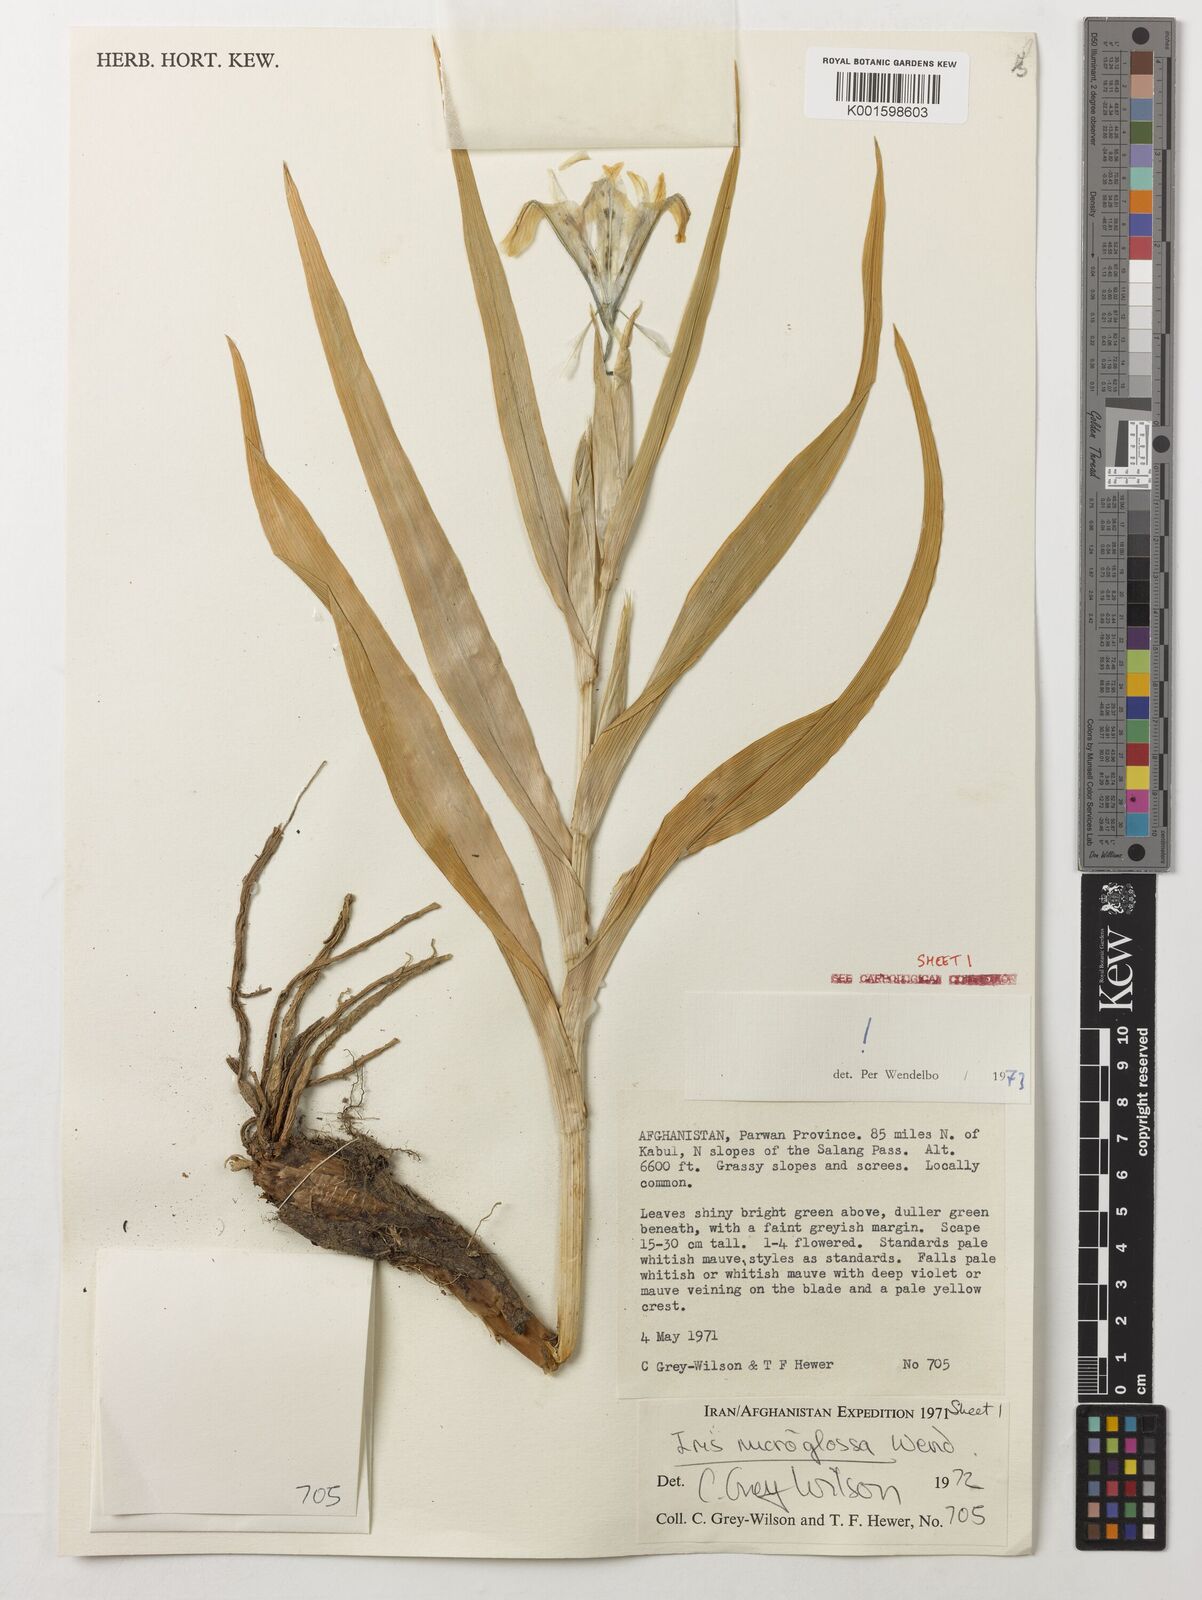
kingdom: Plantae
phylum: Tracheophyta
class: Liliopsida
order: Asparagales
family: Iridaceae
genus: Iris
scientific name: Iris microglossa
